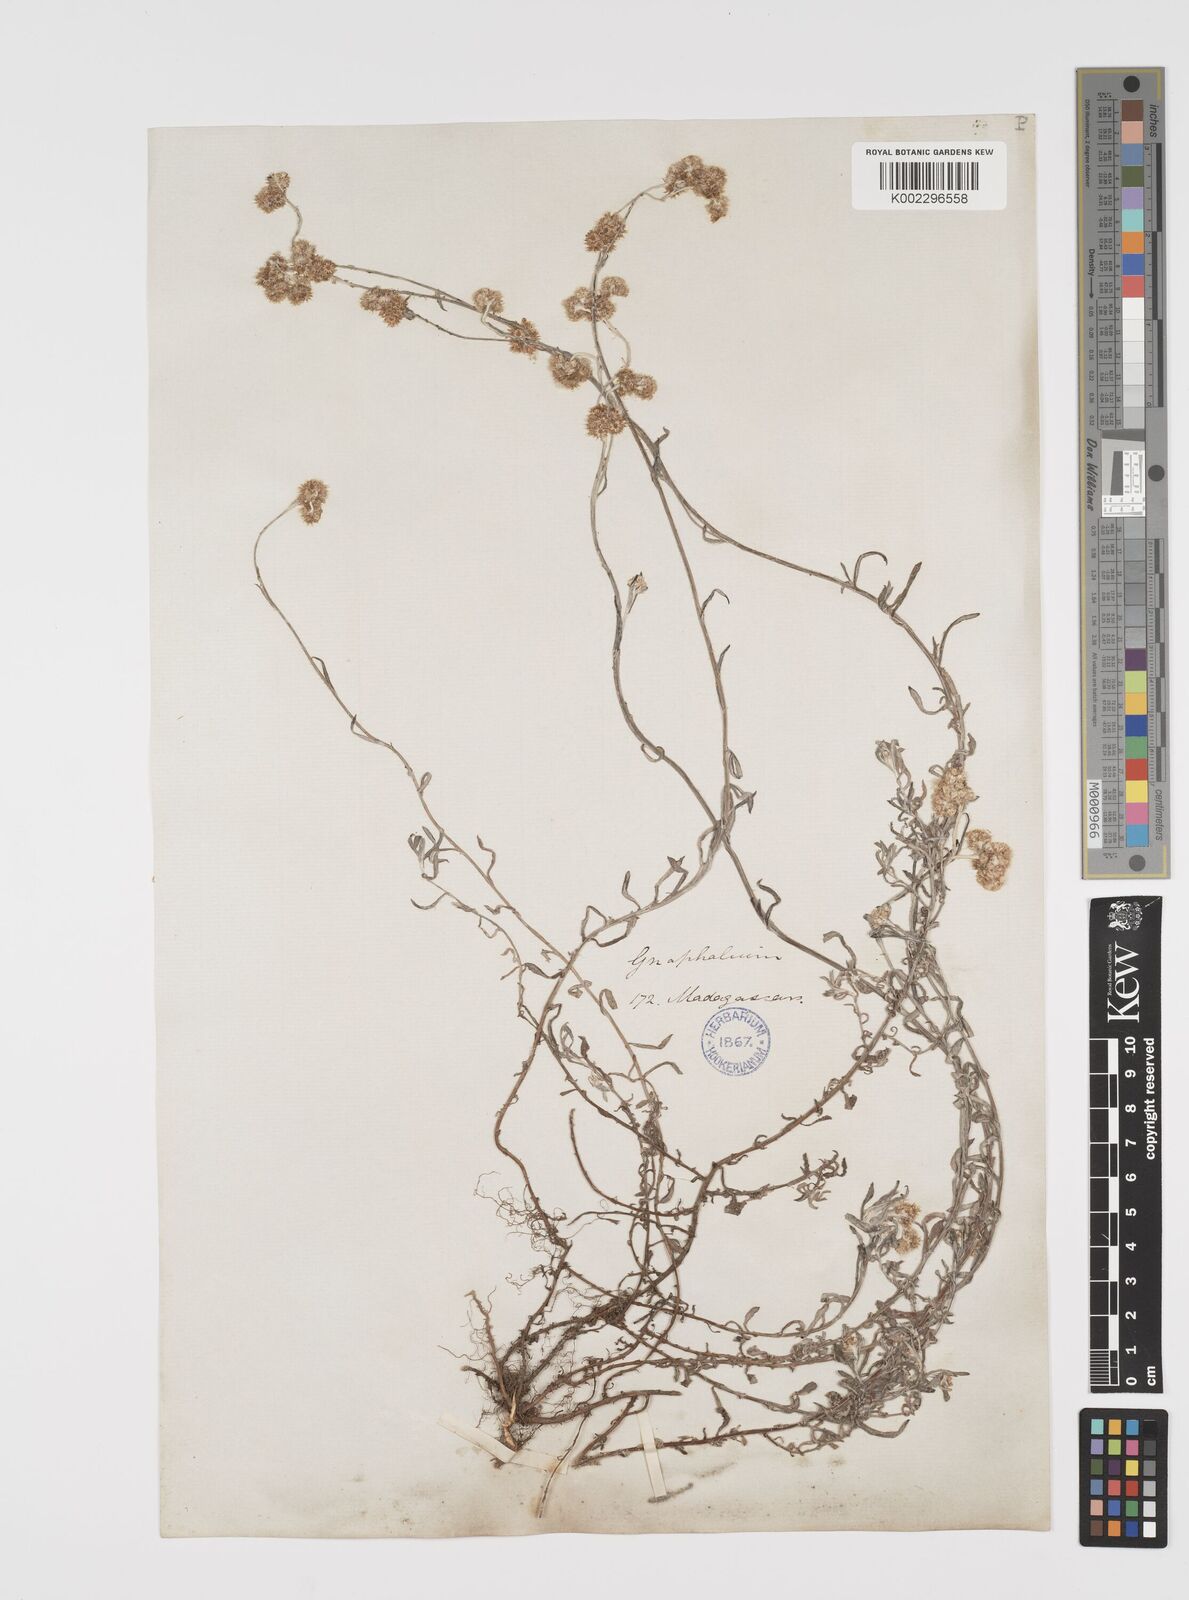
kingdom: Plantae
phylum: Tracheophyta
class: Magnoliopsida
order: Asterales
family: Asteraceae
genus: Helichrysum
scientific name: Helichrysum luteoalbum
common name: Daisy
